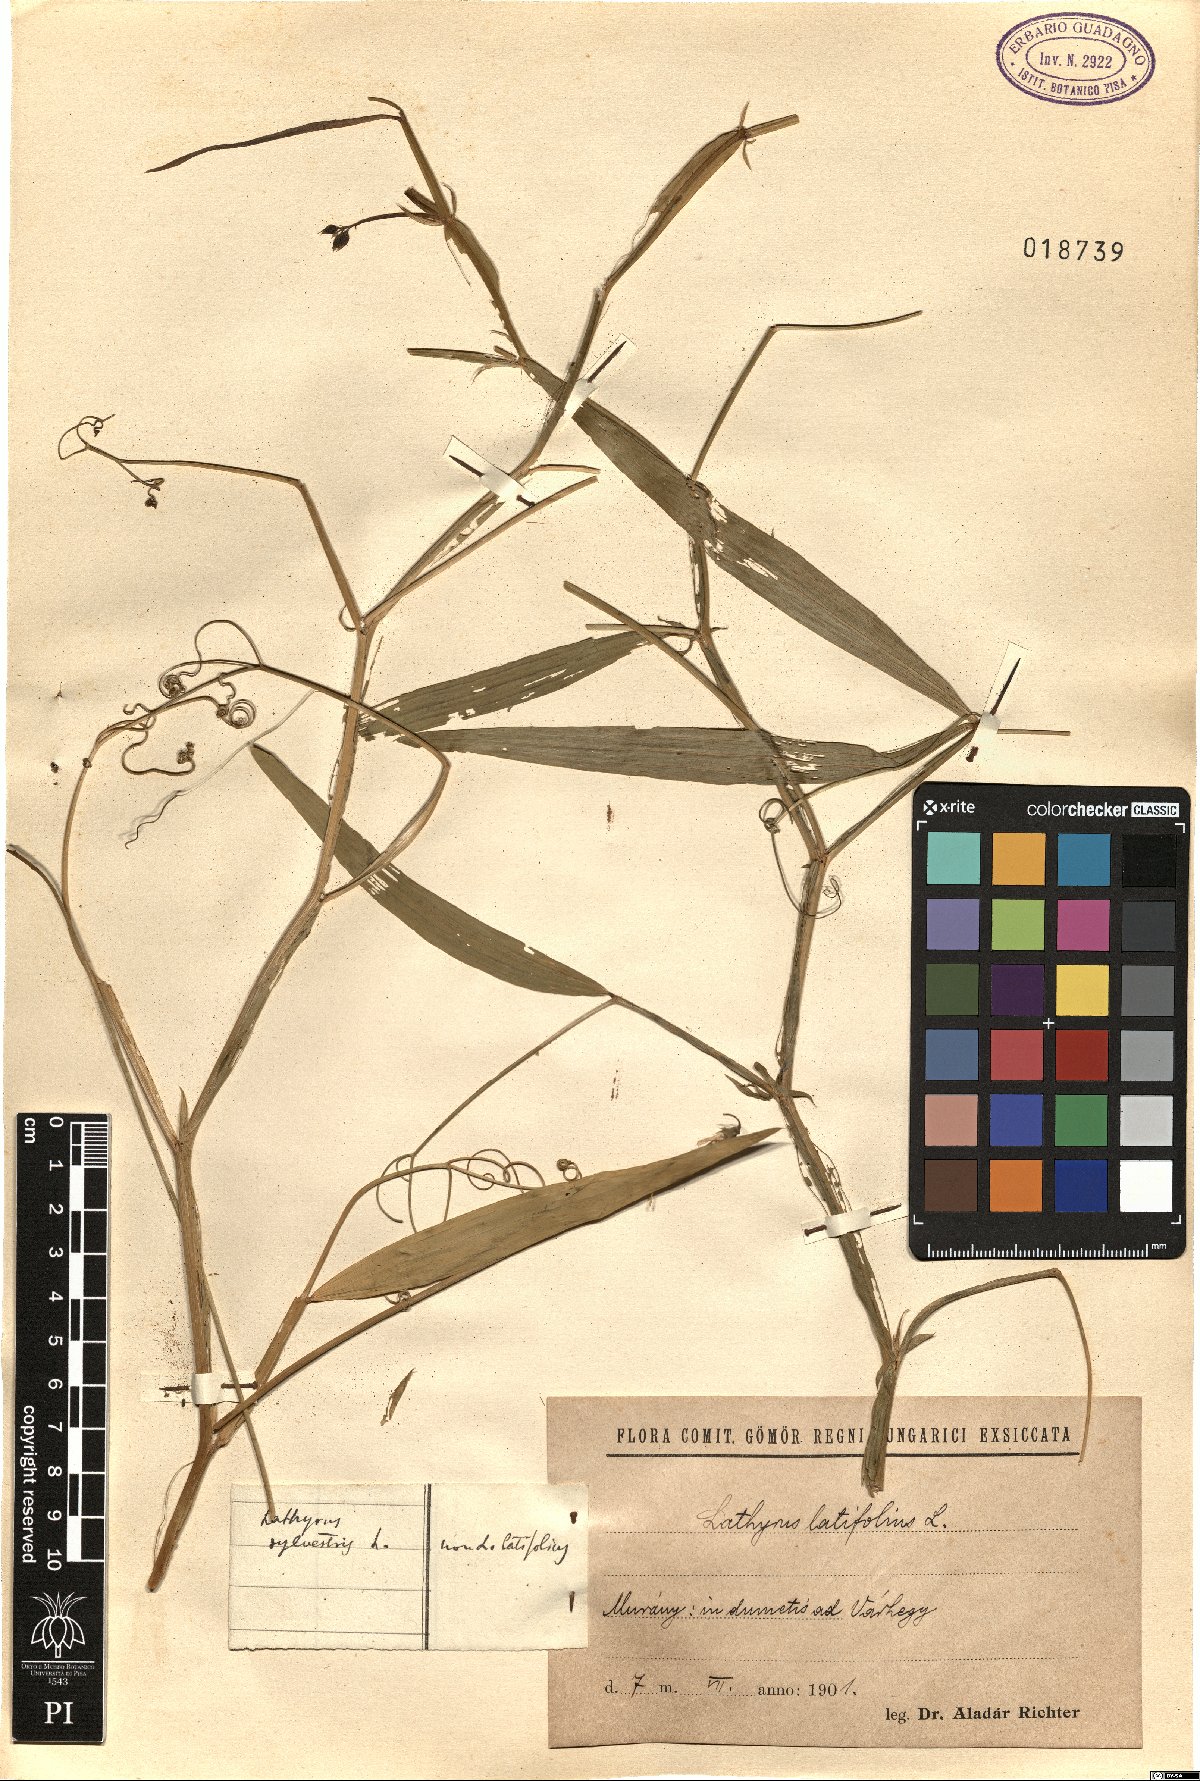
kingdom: Plantae
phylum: Tracheophyta
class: Magnoliopsida
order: Fabales
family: Fabaceae
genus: Lathyrus
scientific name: Lathyrus sylvestris
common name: Flat pea
